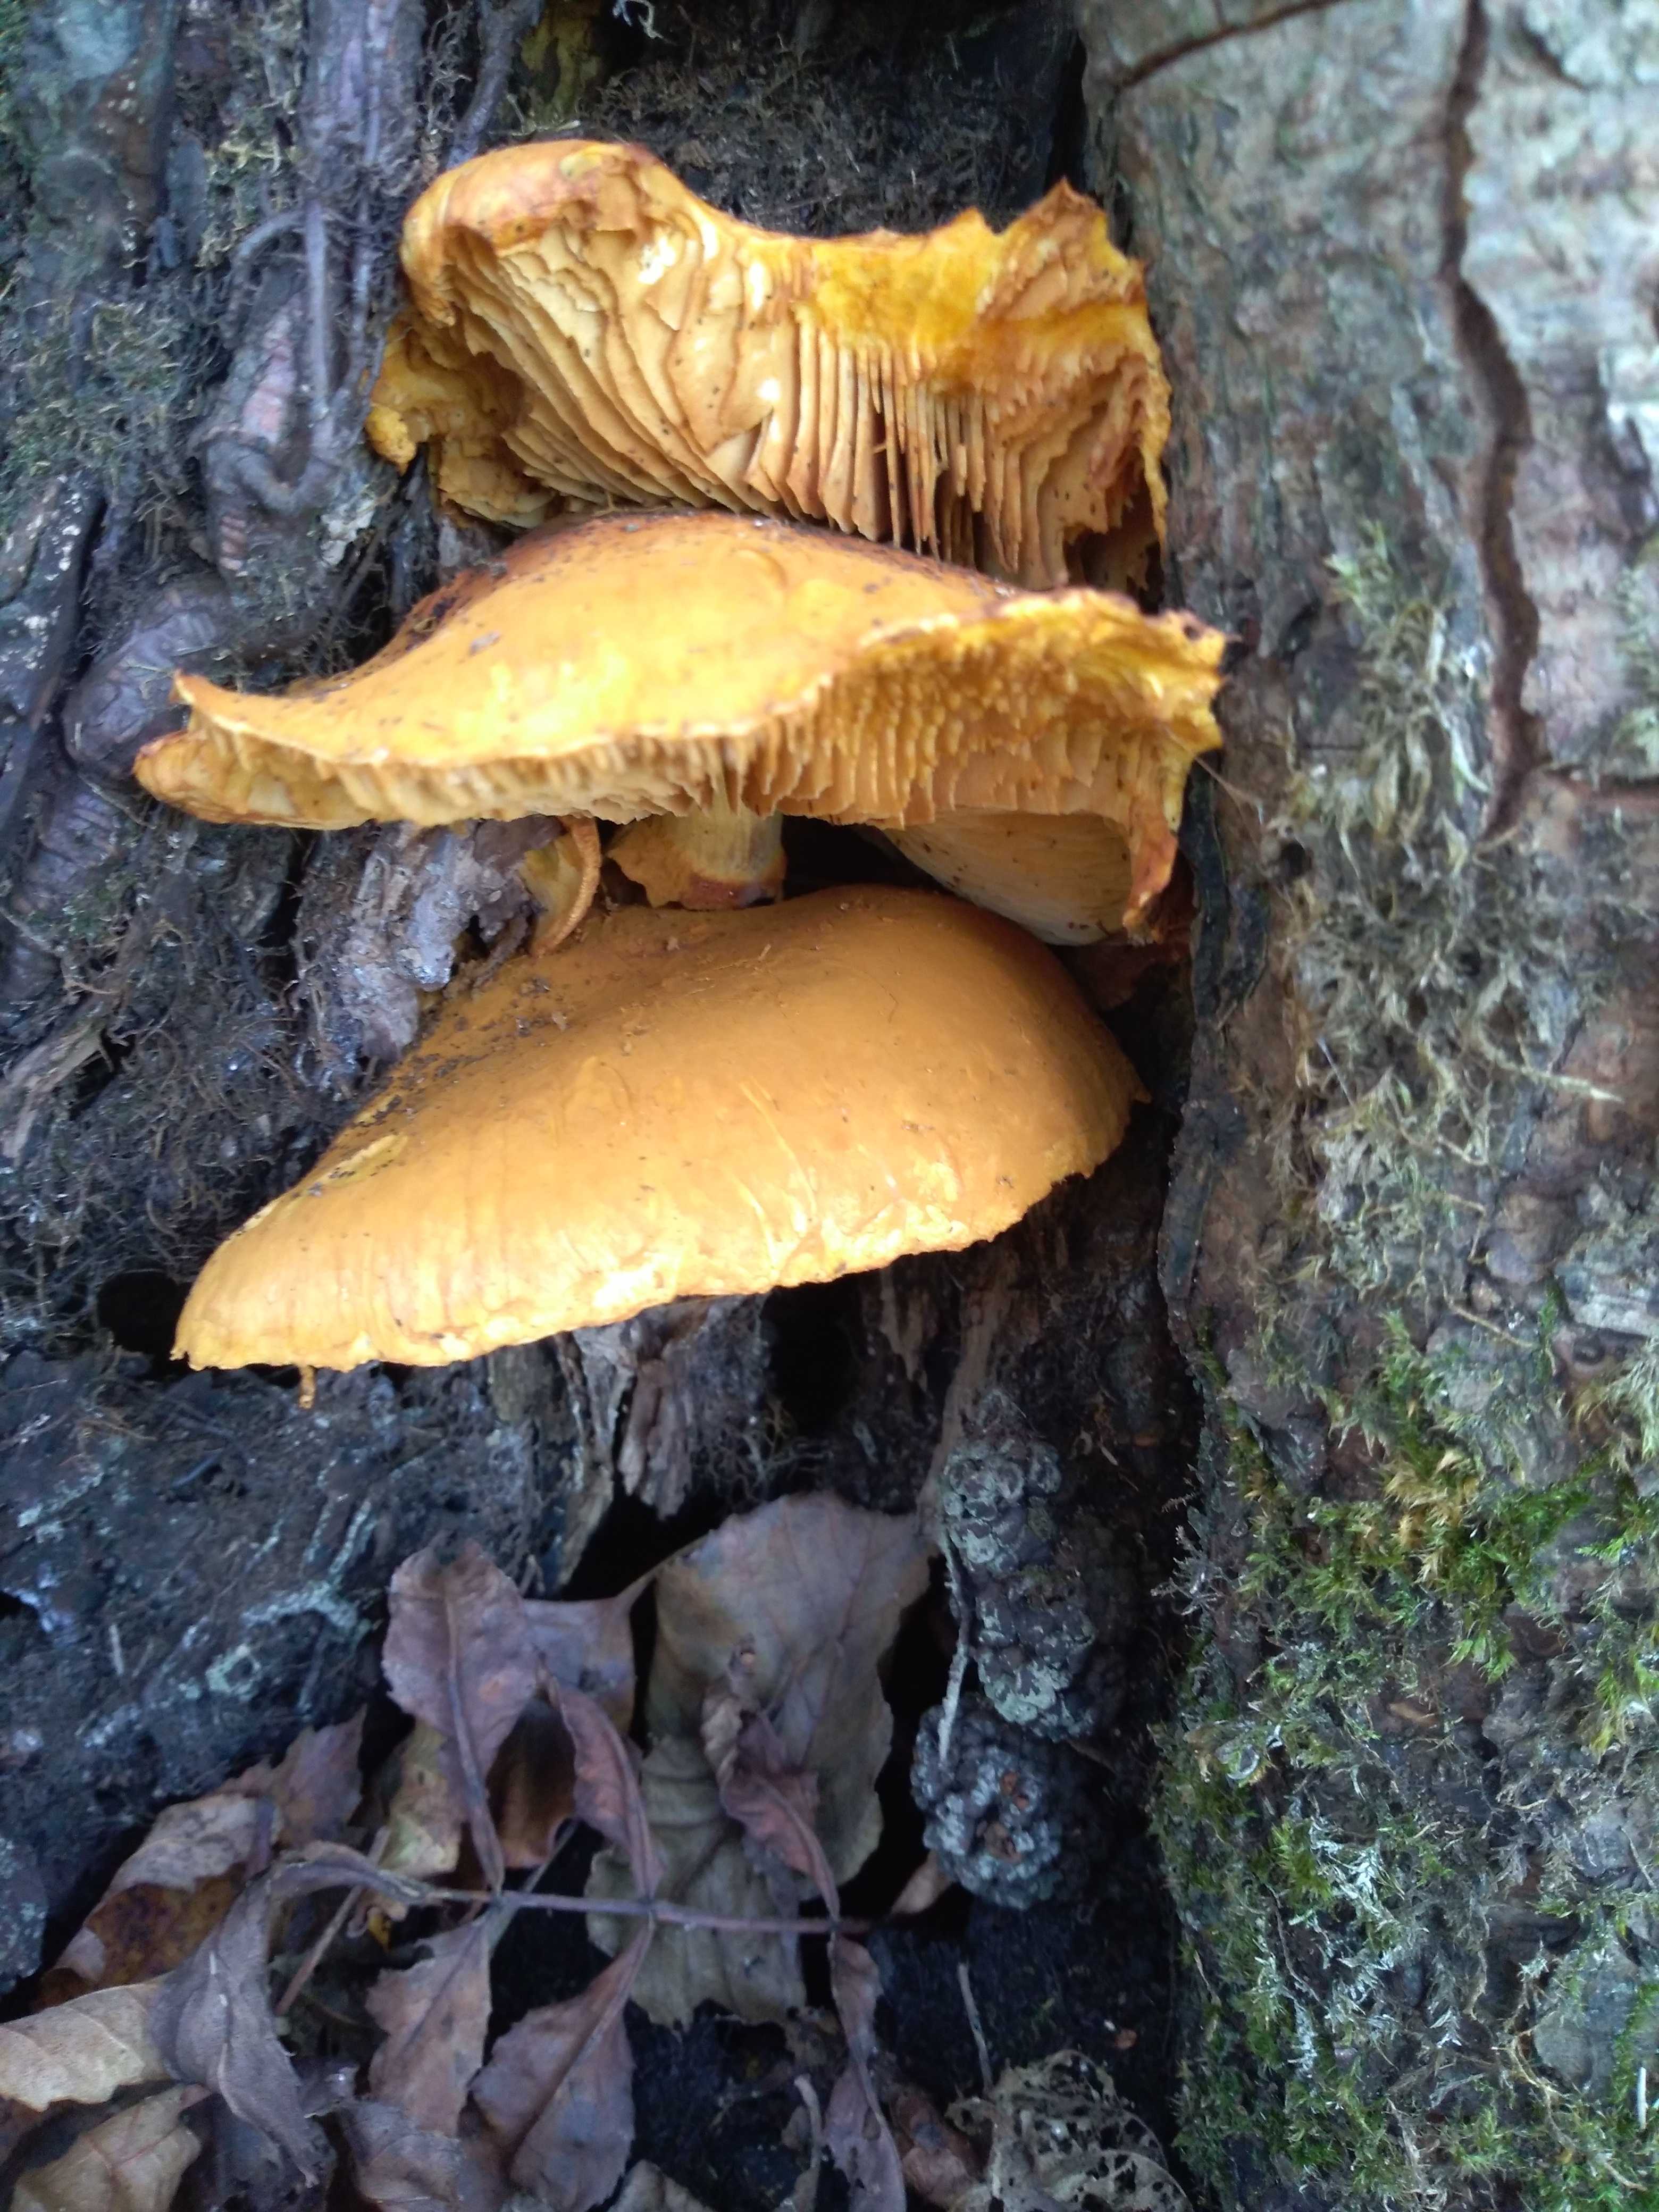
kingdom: Fungi
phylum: Basidiomycota
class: Agaricomycetes
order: Agaricales
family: Hymenogastraceae
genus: Gymnopilus
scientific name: Gymnopilus spectabilis
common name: fibret flammehat
